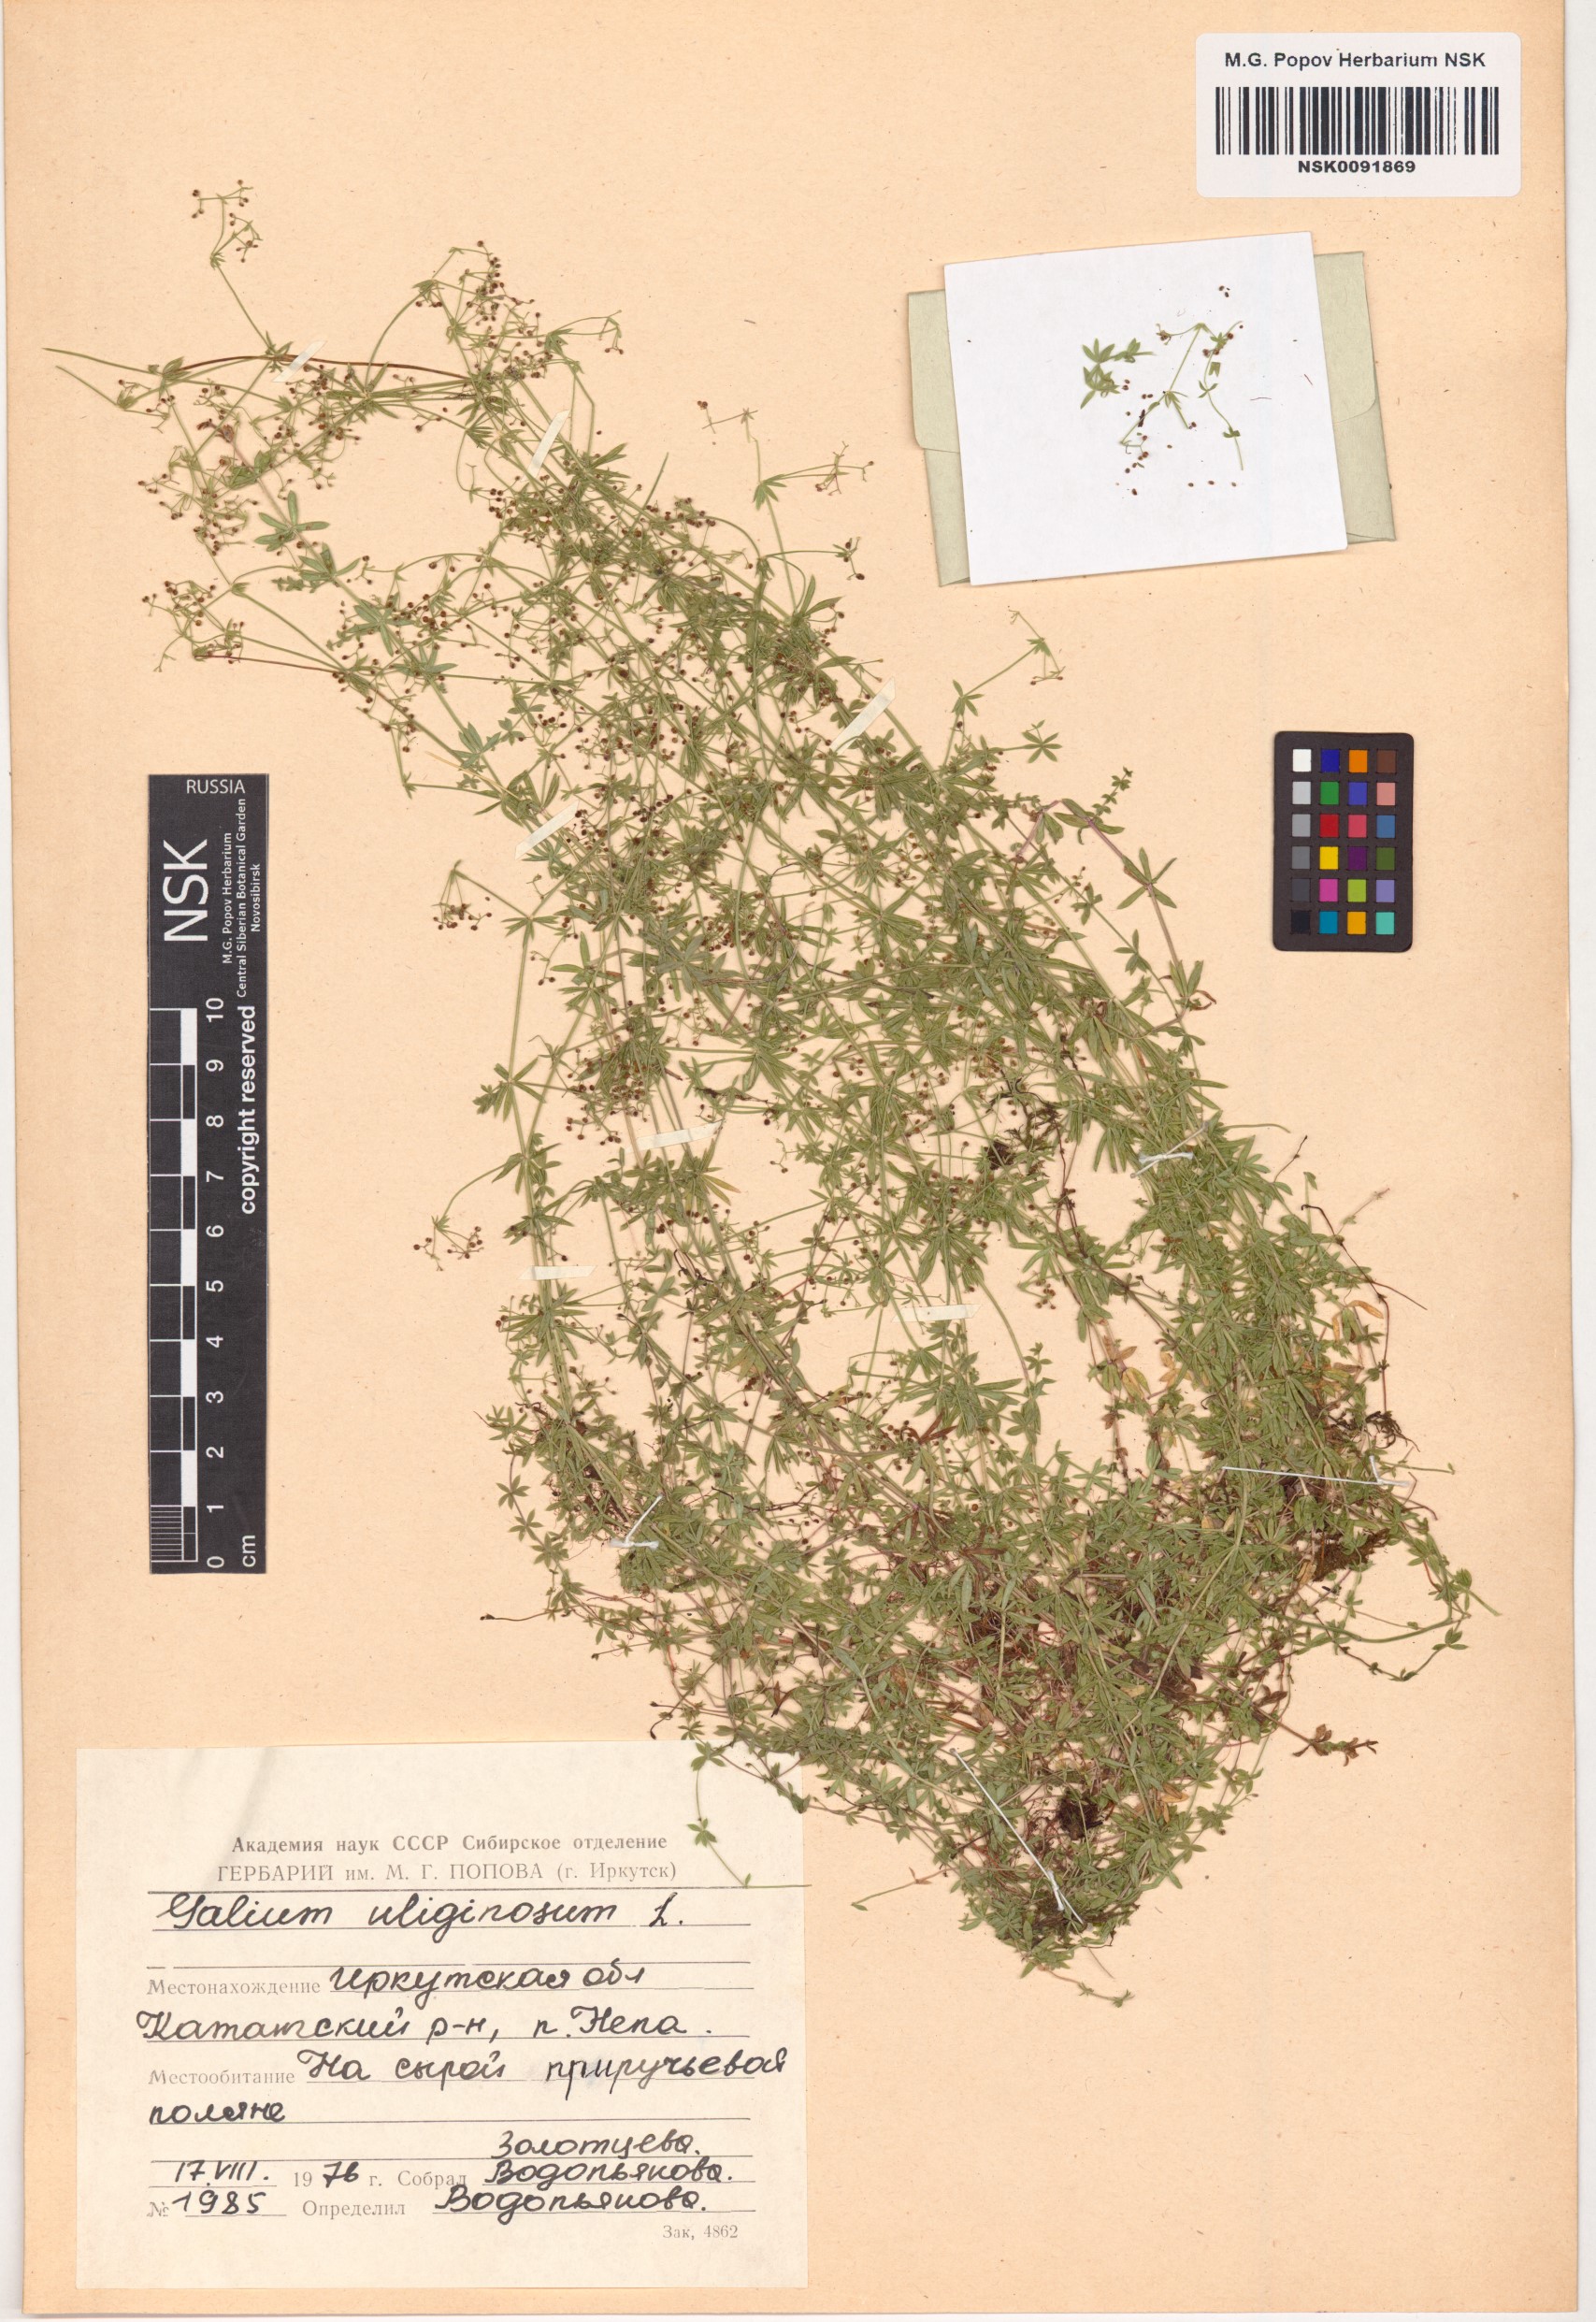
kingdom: Plantae
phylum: Tracheophyta
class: Magnoliopsida
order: Gentianales
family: Rubiaceae
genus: Galium
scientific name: Galium uliginosum
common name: Fen bedstraw
